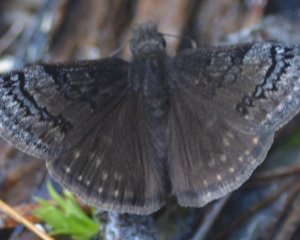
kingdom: Animalia
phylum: Arthropoda
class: Insecta
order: Lepidoptera
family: Hesperiidae
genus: Erynnis
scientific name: Erynnis brizo
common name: Sleepy Duskywing
